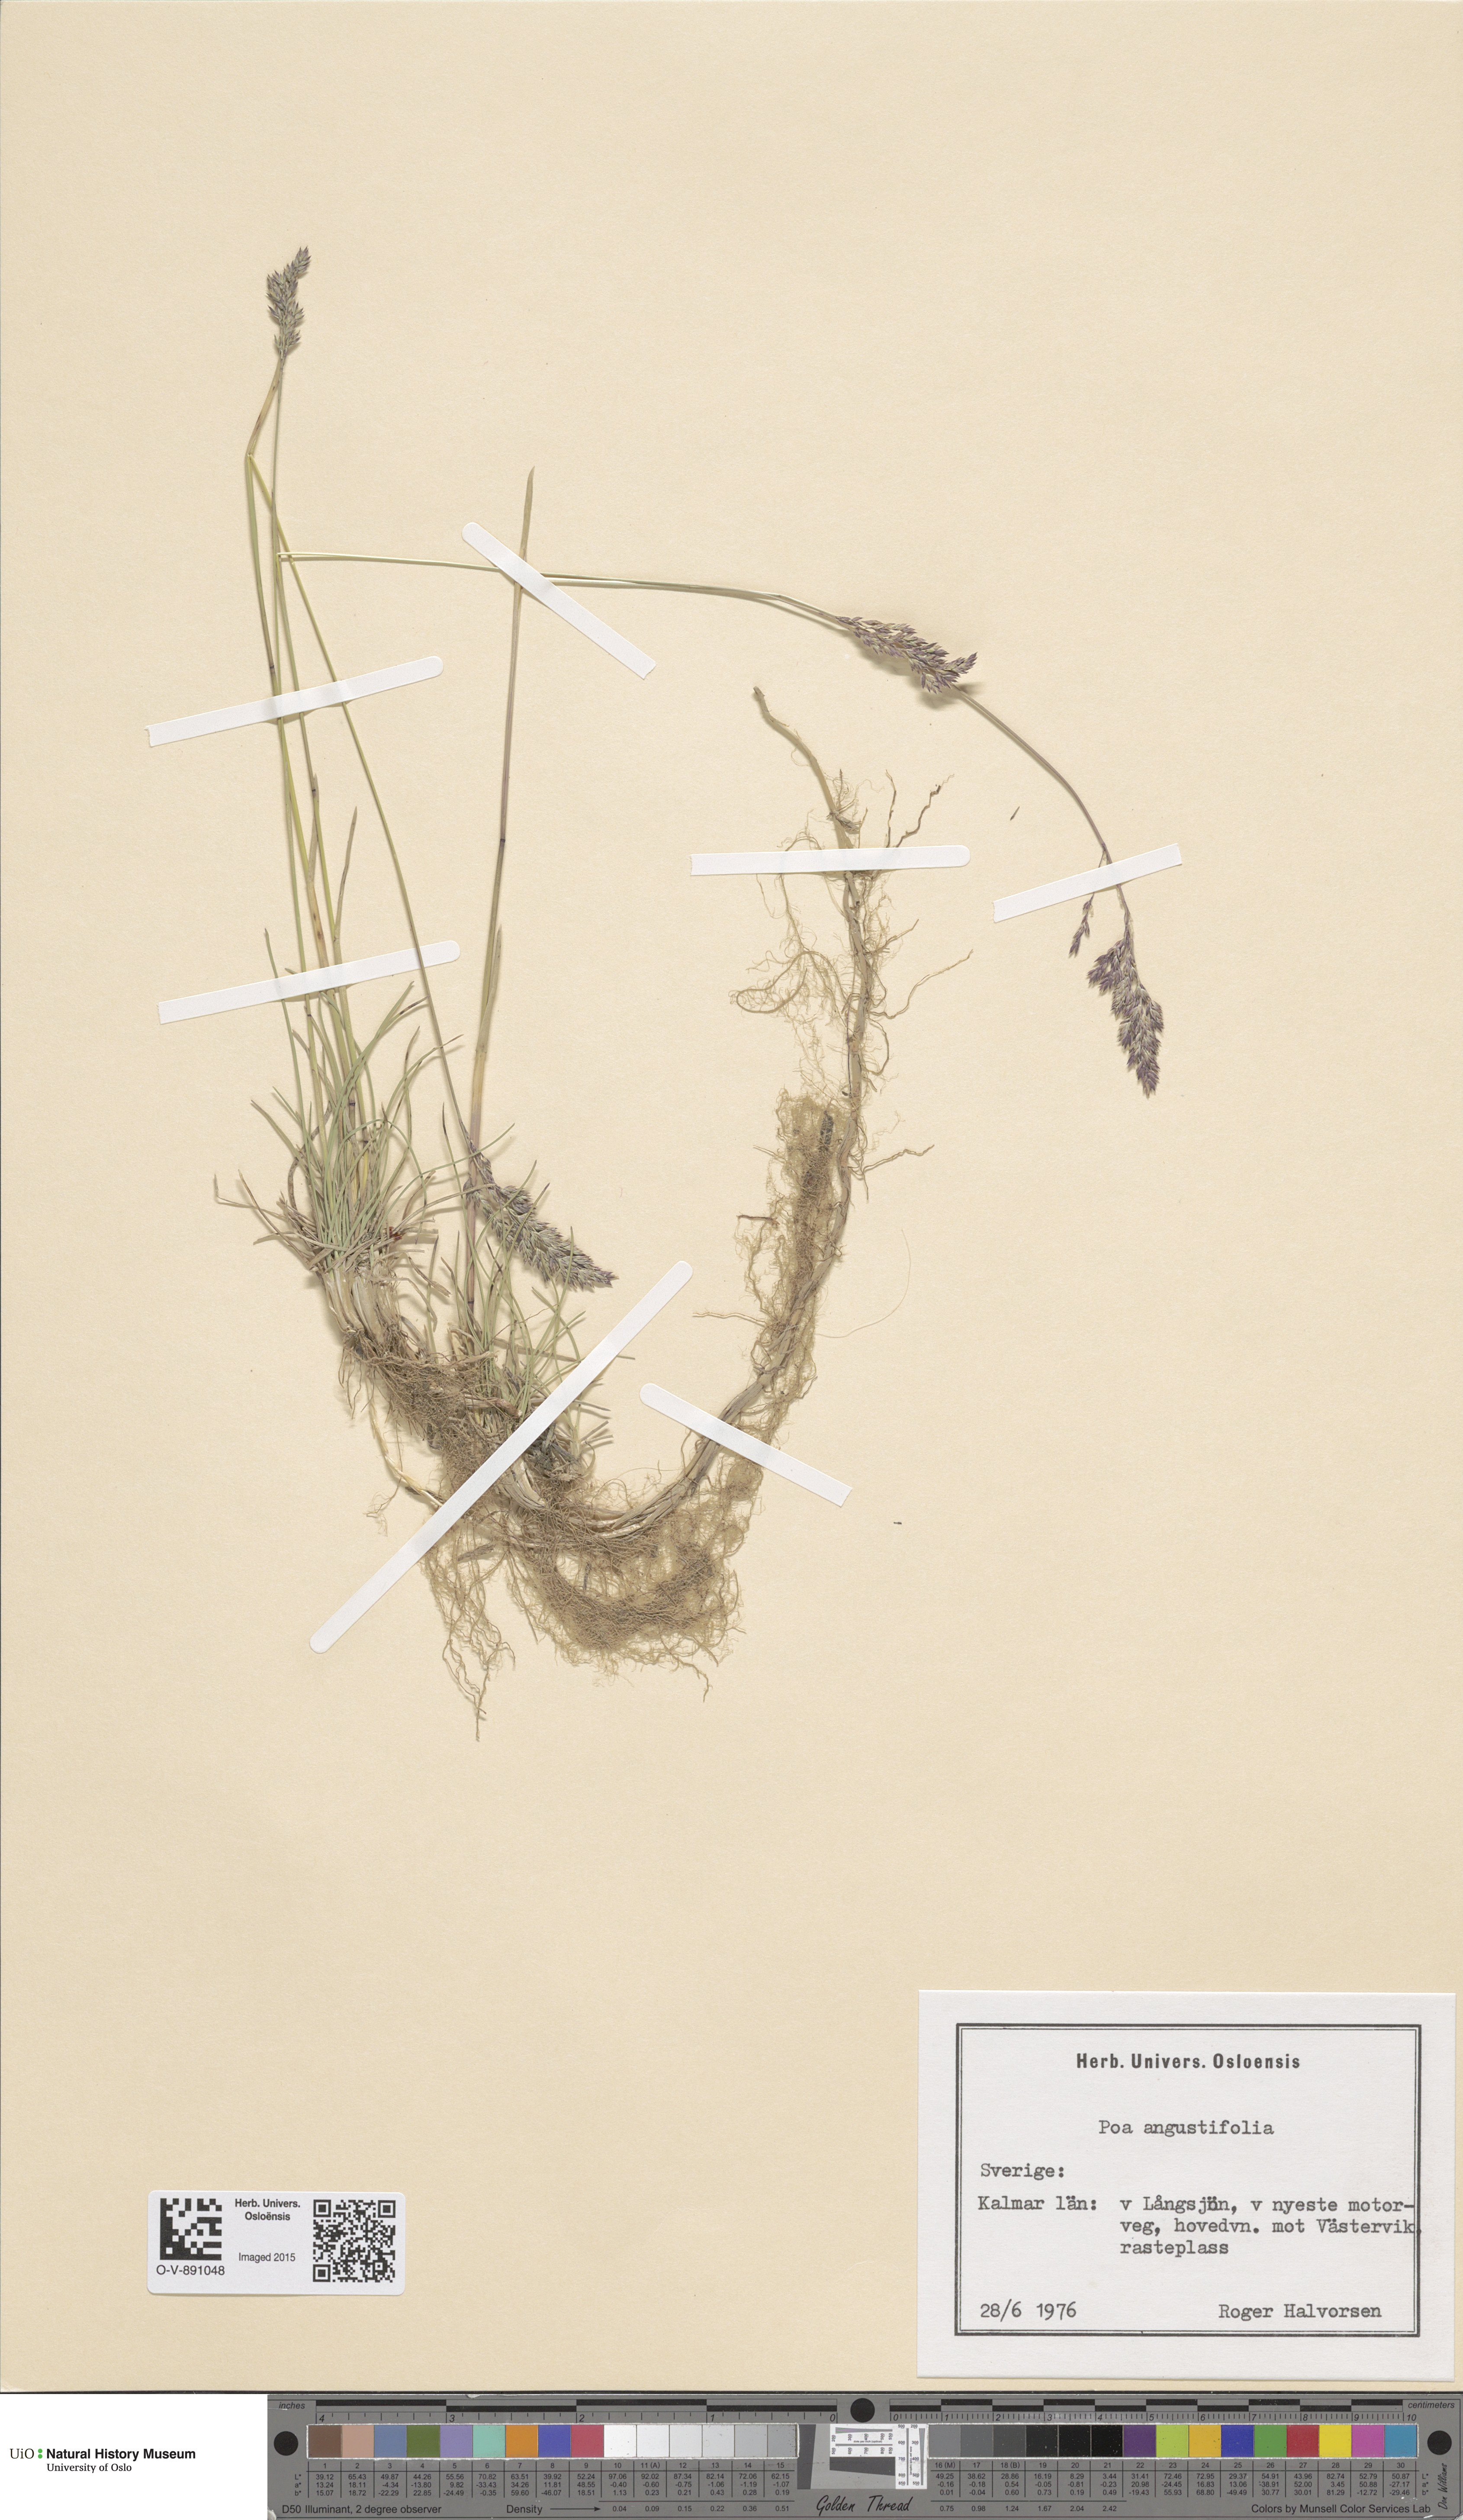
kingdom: Plantae
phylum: Tracheophyta
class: Liliopsida
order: Poales
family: Poaceae
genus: Poa
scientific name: Poa angustifolia
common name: Narrow-leaved meadow-grass
